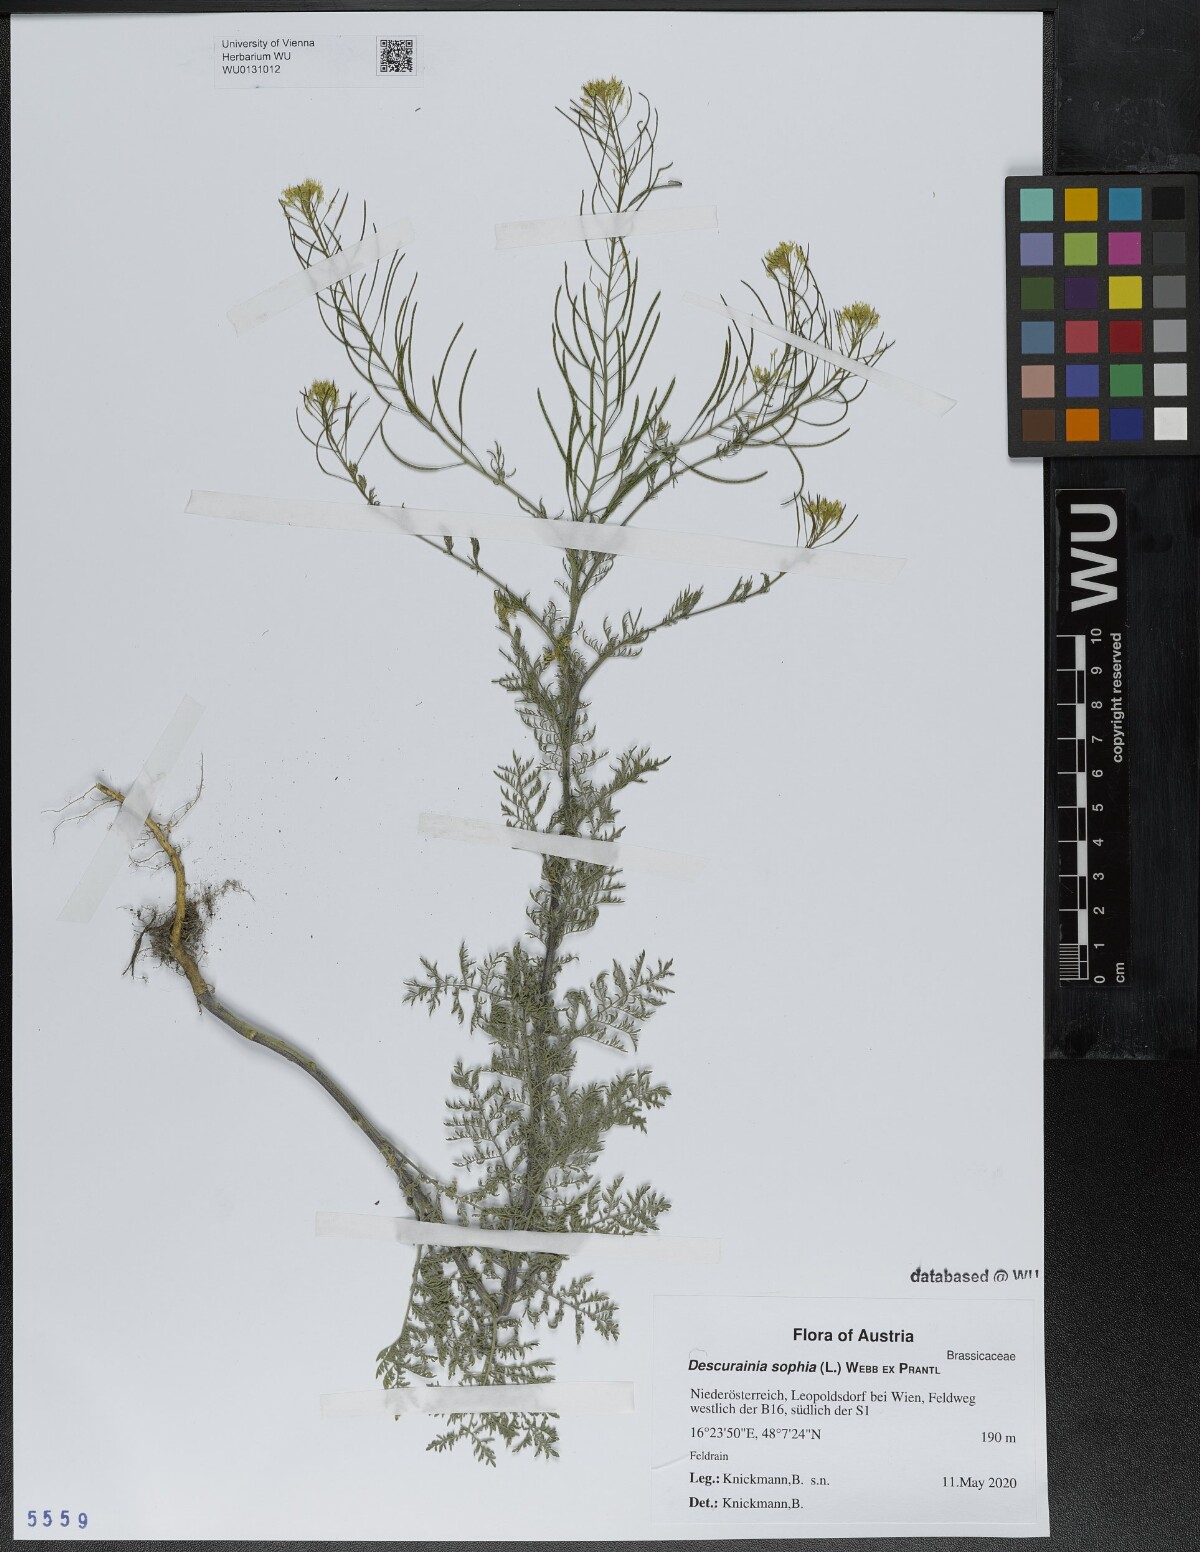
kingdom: Plantae
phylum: Tracheophyta
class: Magnoliopsida
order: Brassicales
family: Brassicaceae
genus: Descurainia
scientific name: Descurainia sophia
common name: Flixweed
